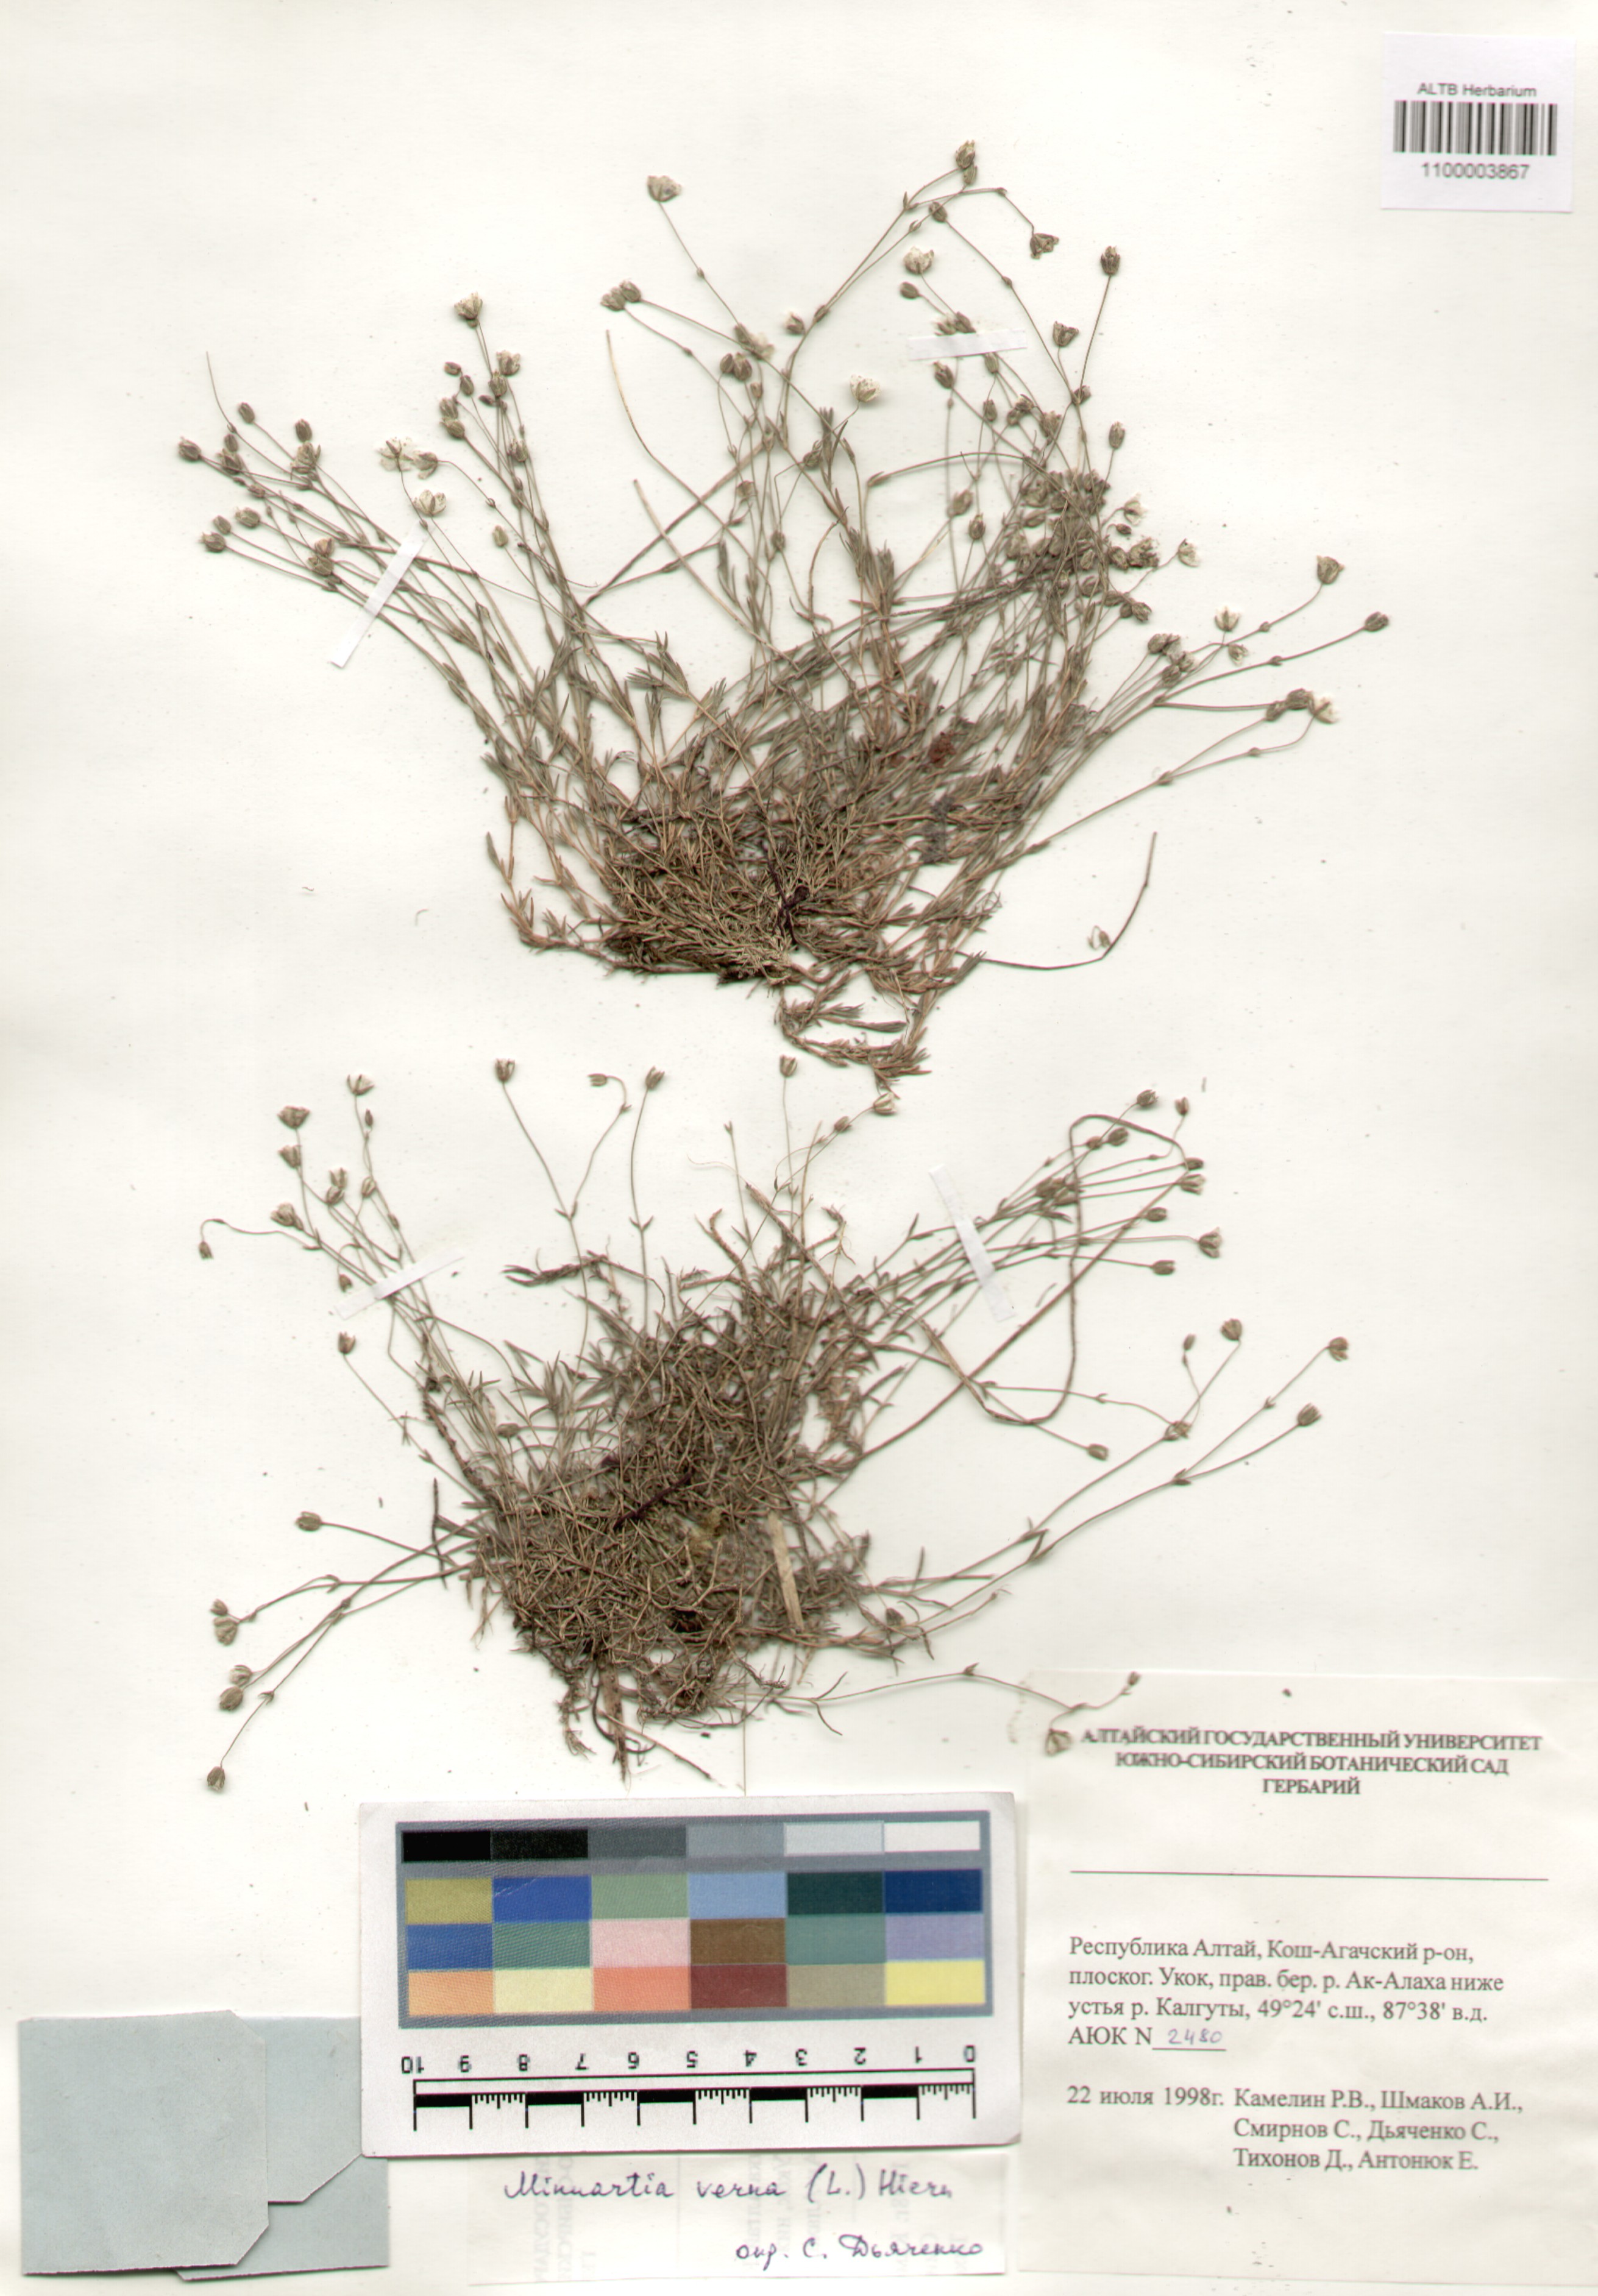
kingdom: Plantae
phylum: Tracheophyta
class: Magnoliopsida
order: Caryophyllales
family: Caryophyllaceae
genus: Sabulina
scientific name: Sabulina verna
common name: Spring sandwort
